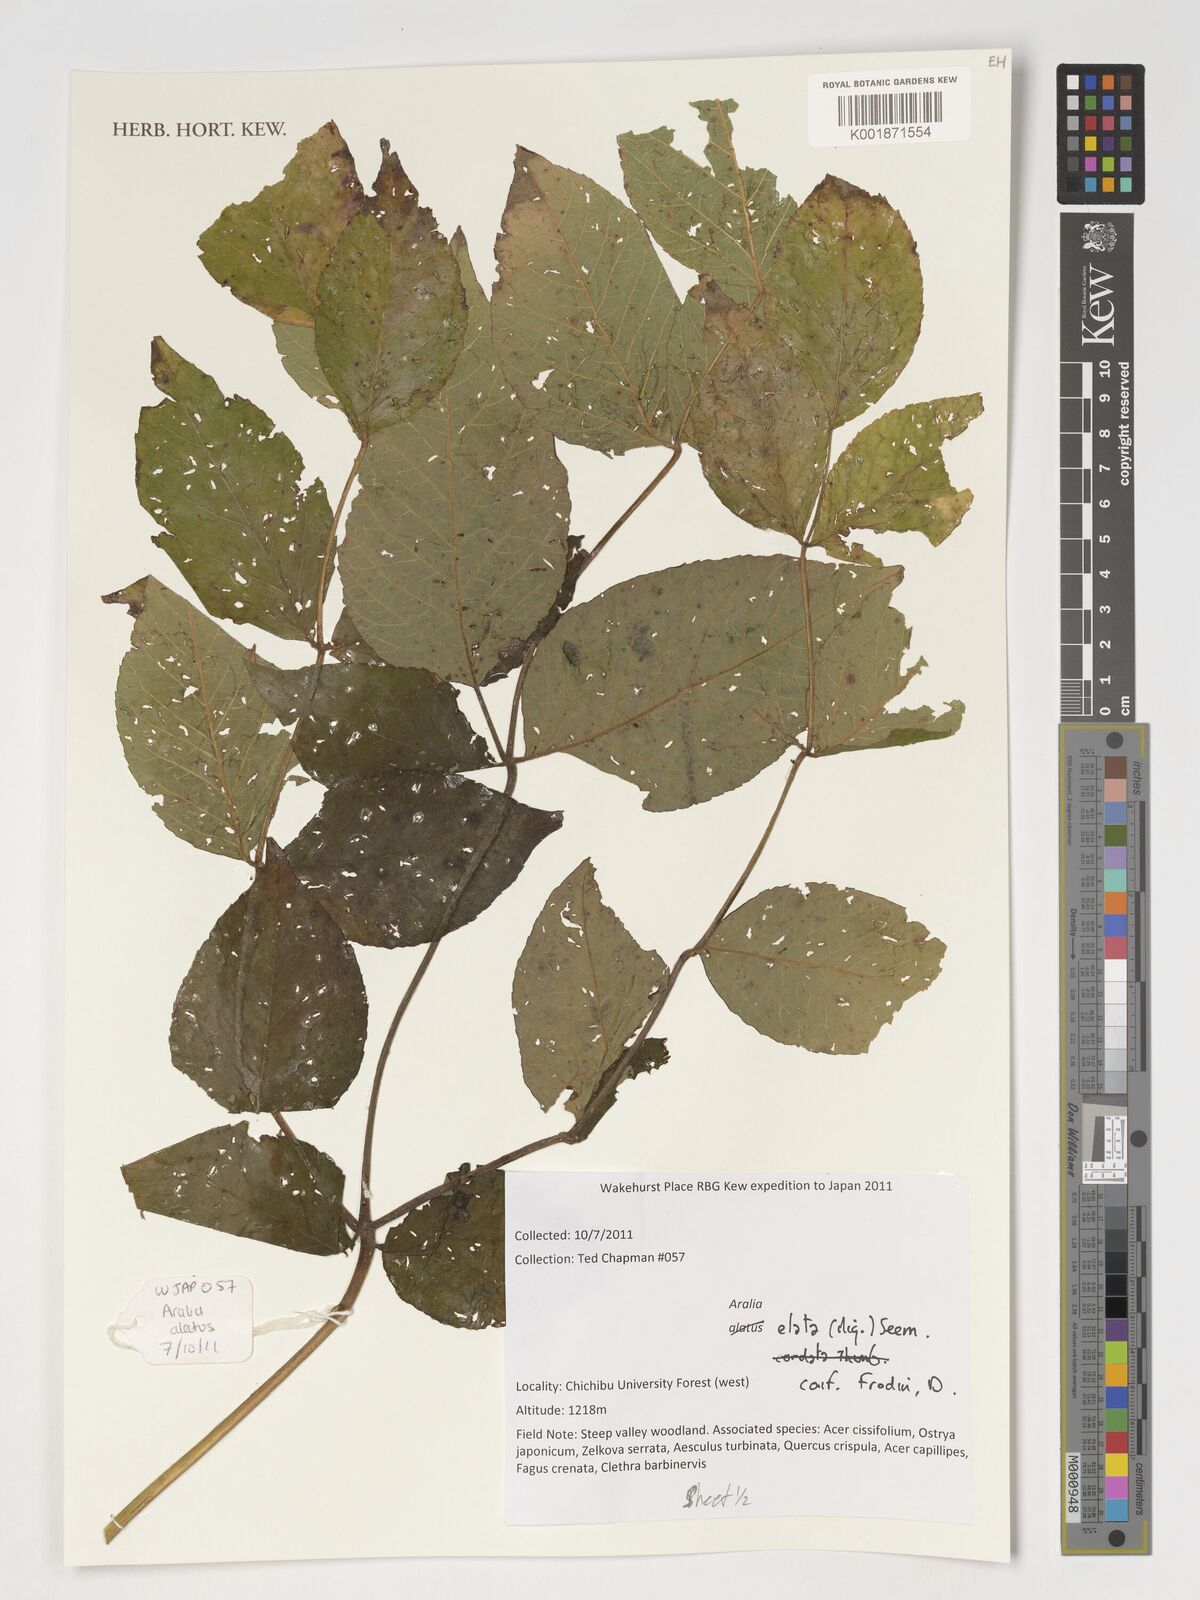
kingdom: Plantae
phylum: Tracheophyta
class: Magnoliopsida
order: Apiales
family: Araliaceae
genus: Aralia
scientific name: Aralia elata
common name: Japanese angelica-tree
